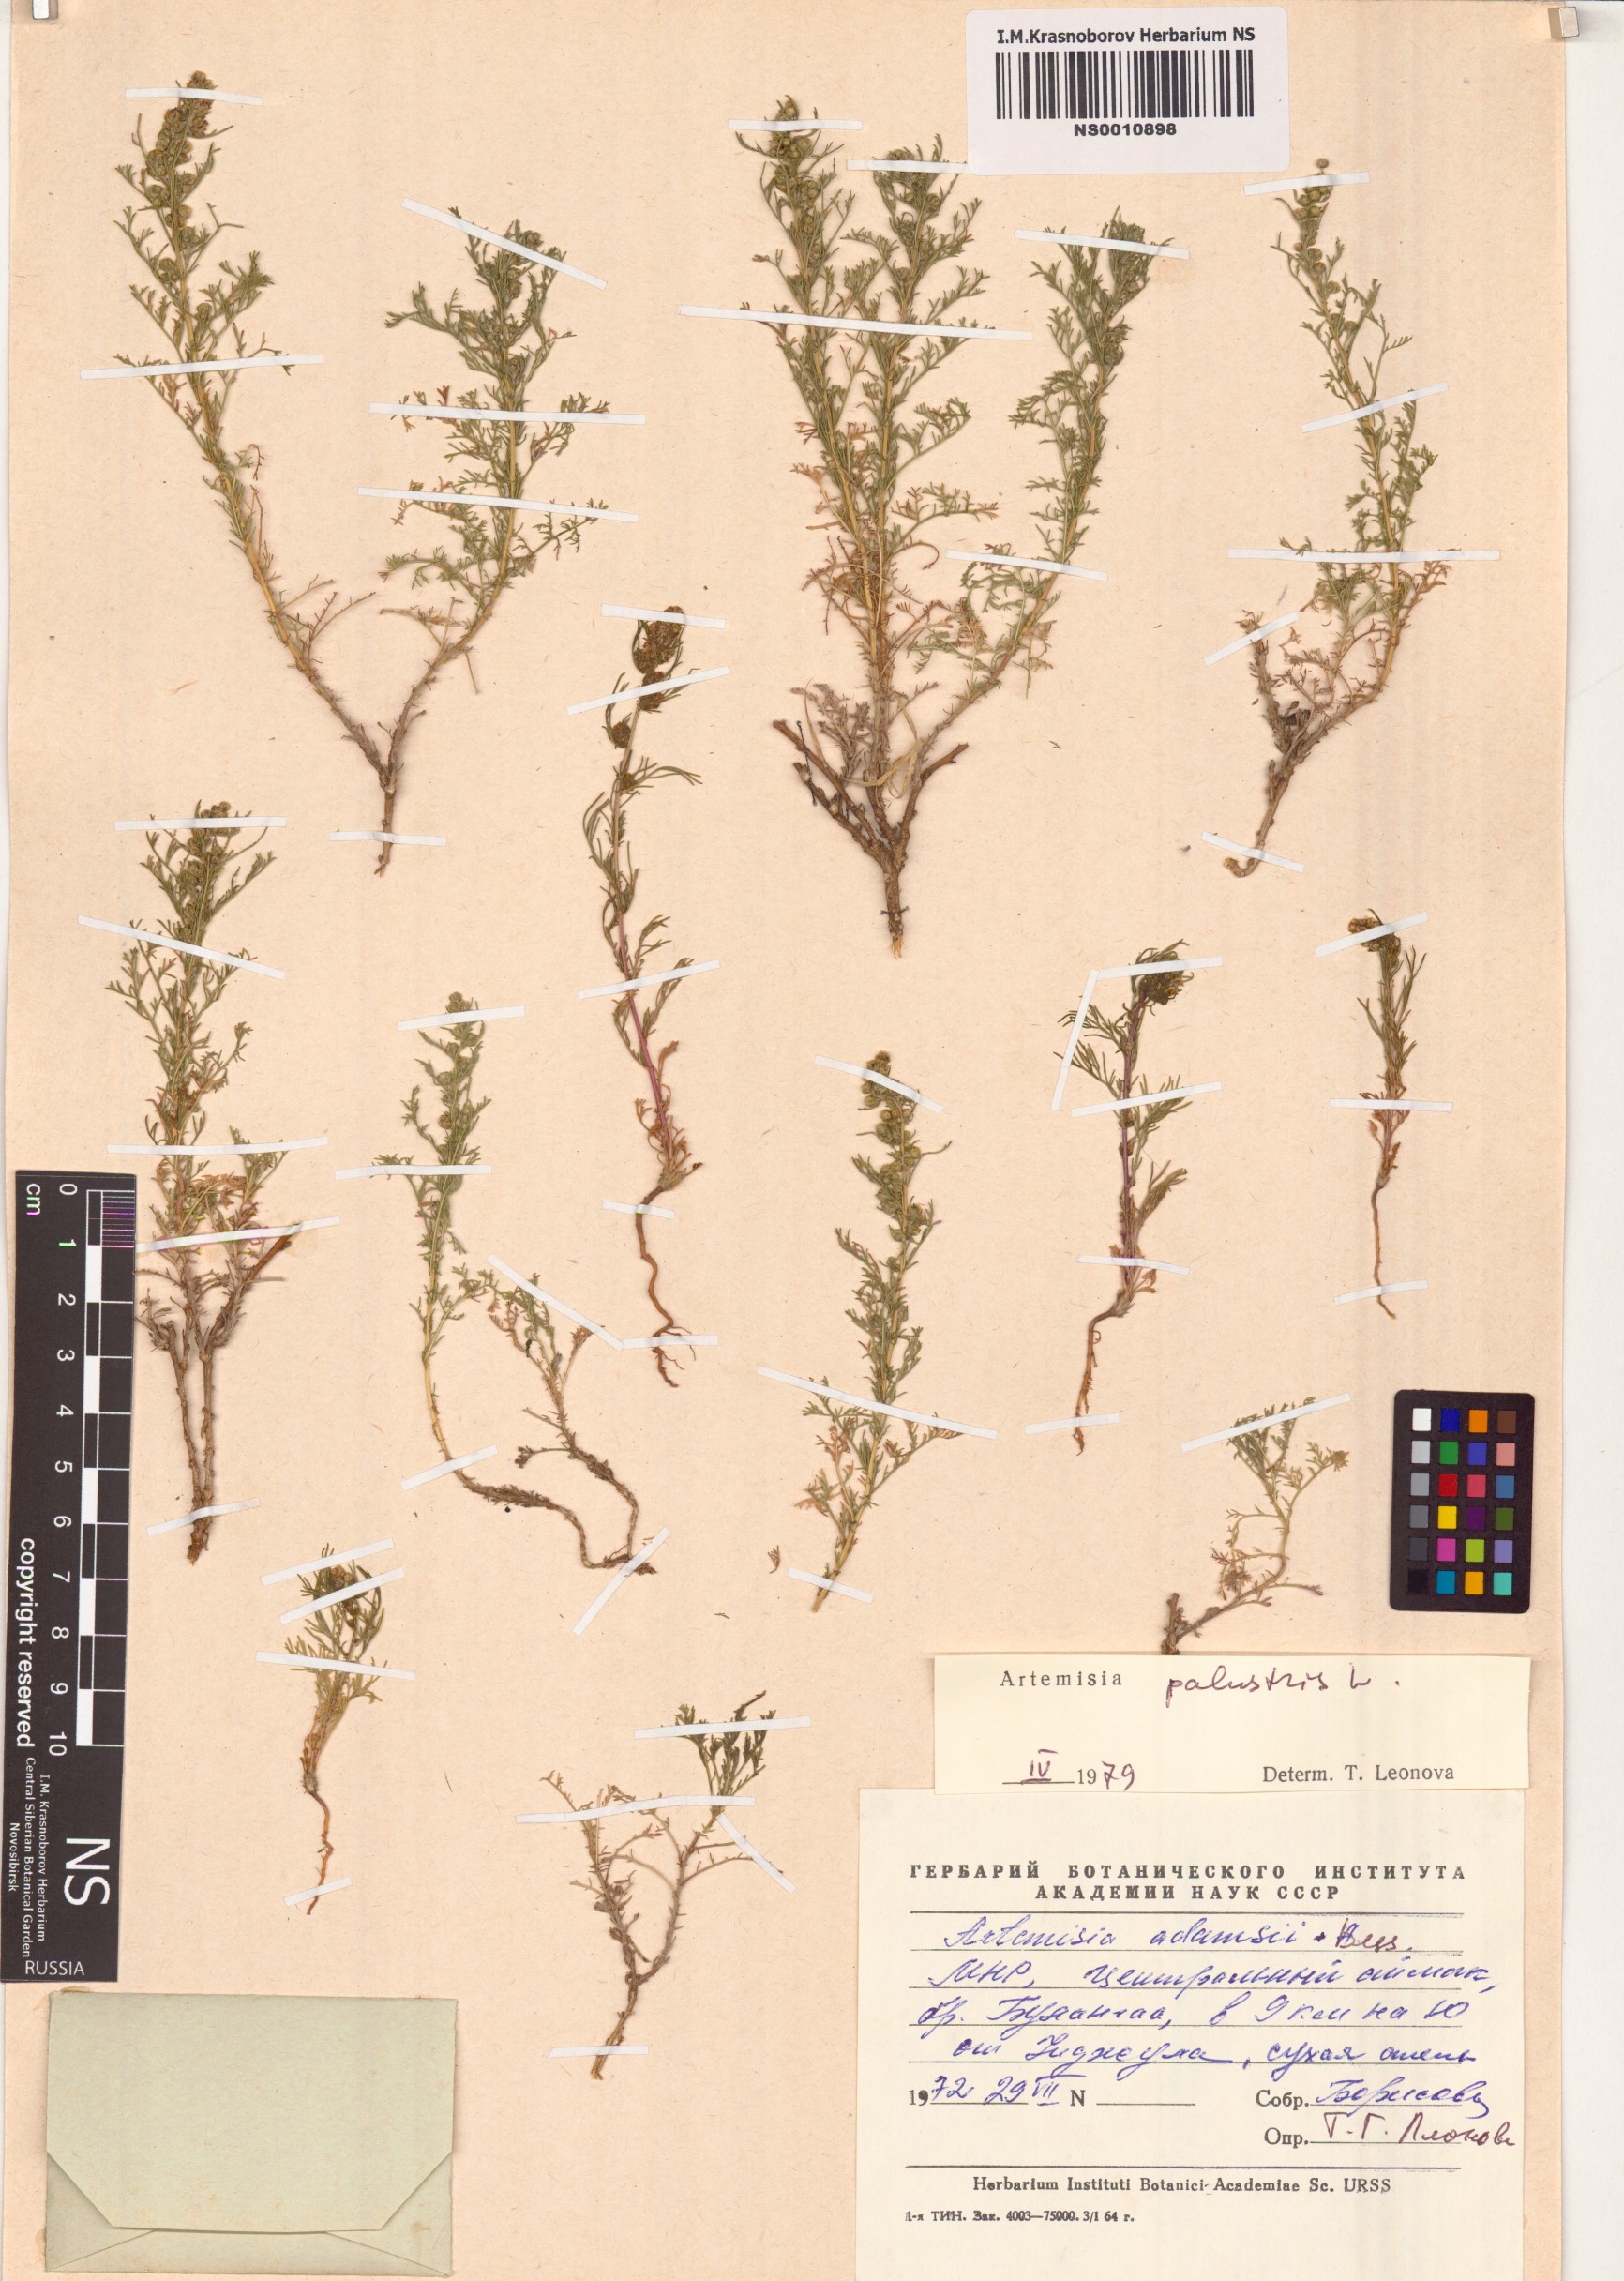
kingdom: Plantae
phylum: Tracheophyta
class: Magnoliopsida
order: Asterales
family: Asteraceae
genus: Artemisia
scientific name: Artemisia palustris
